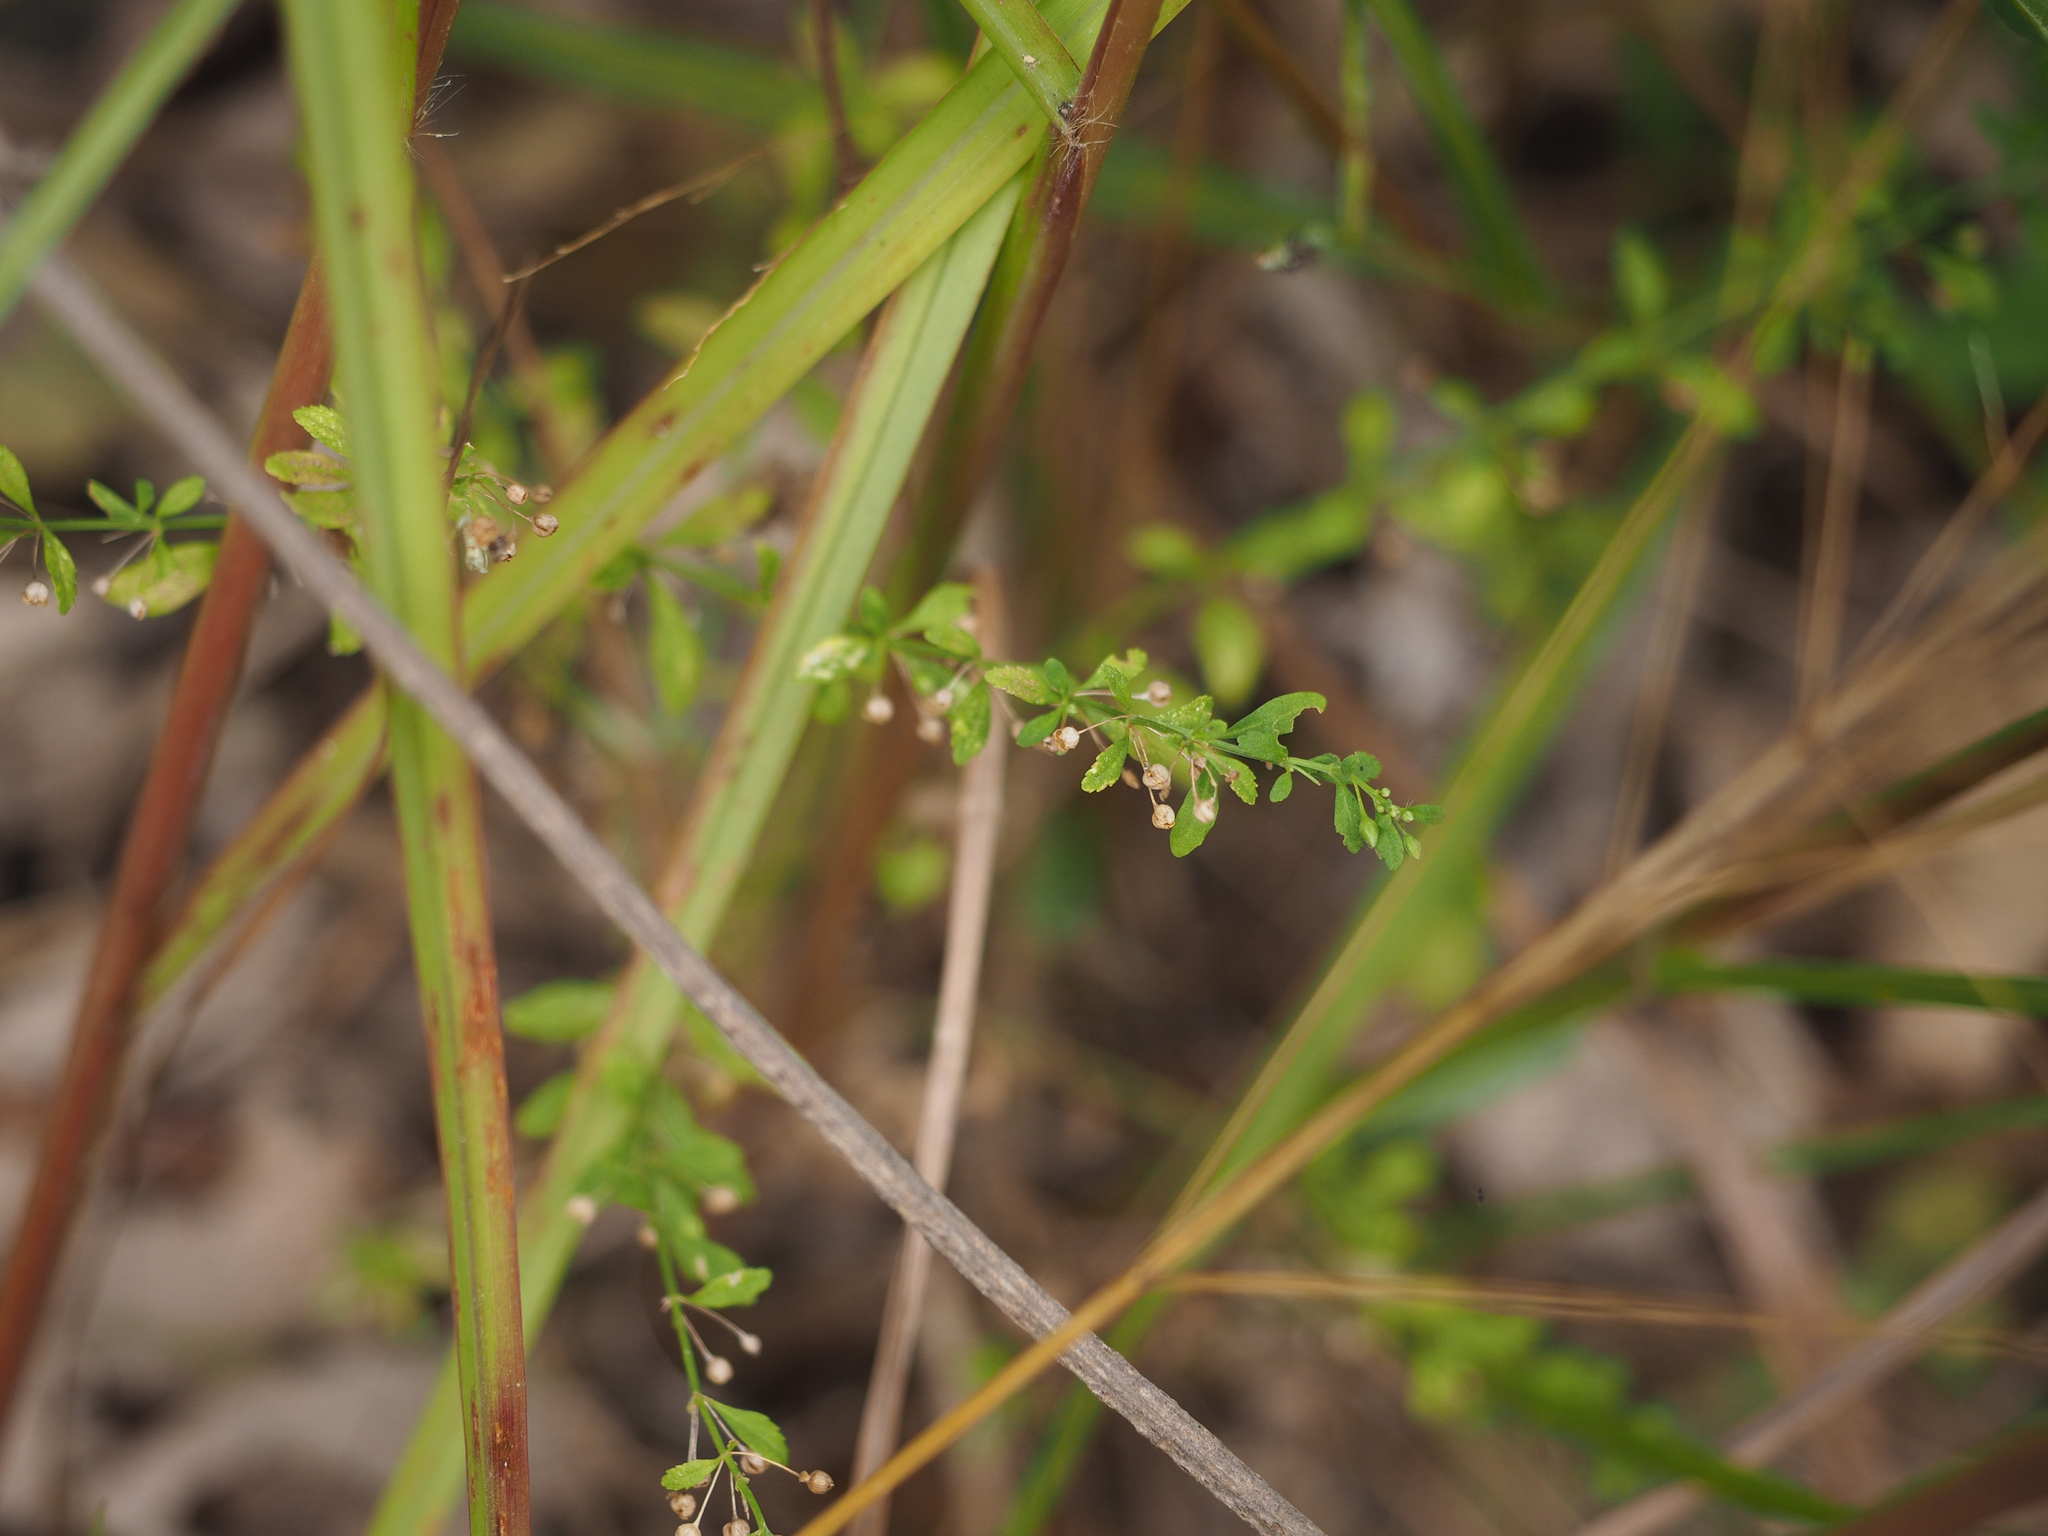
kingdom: Plantae
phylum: Tracheophyta
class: Magnoliopsida
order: Lamiales
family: Plantaginaceae
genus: Scoparia
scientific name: Scoparia dulcis
